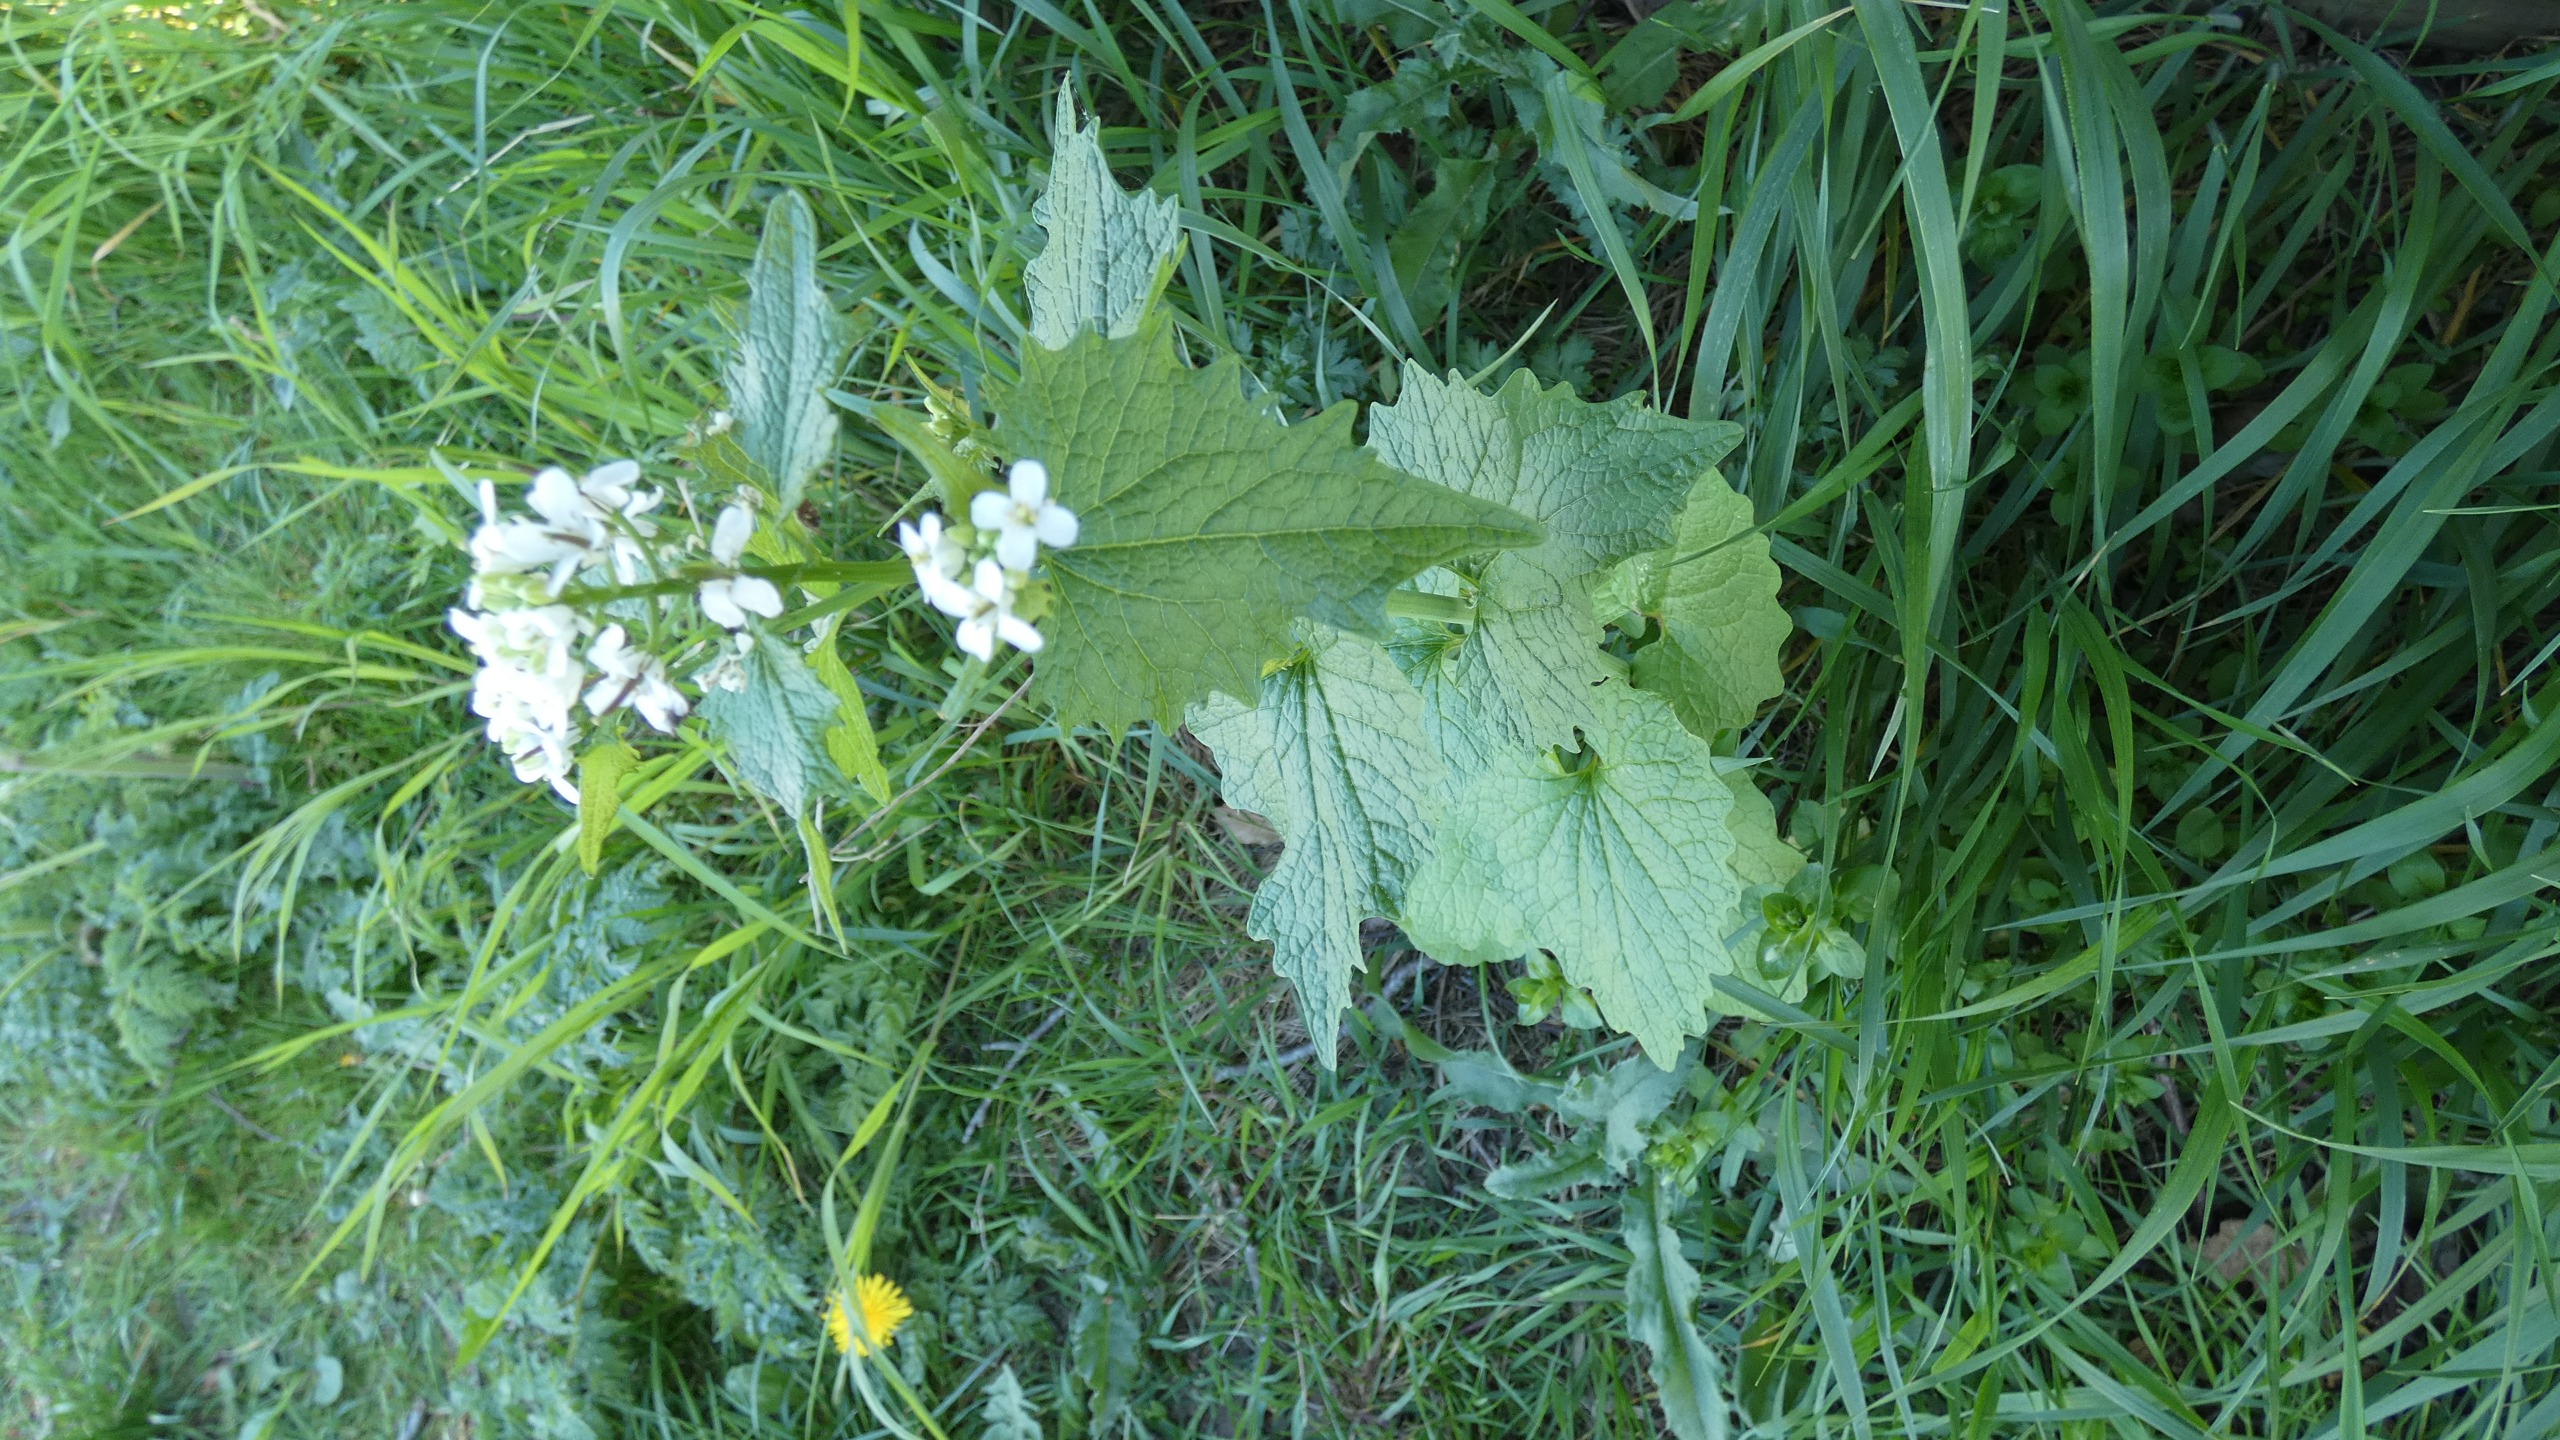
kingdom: Plantae
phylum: Tracheophyta
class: Magnoliopsida
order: Brassicales
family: Brassicaceae
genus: Alliaria
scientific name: Alliaria petiolata
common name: Løgkarse
